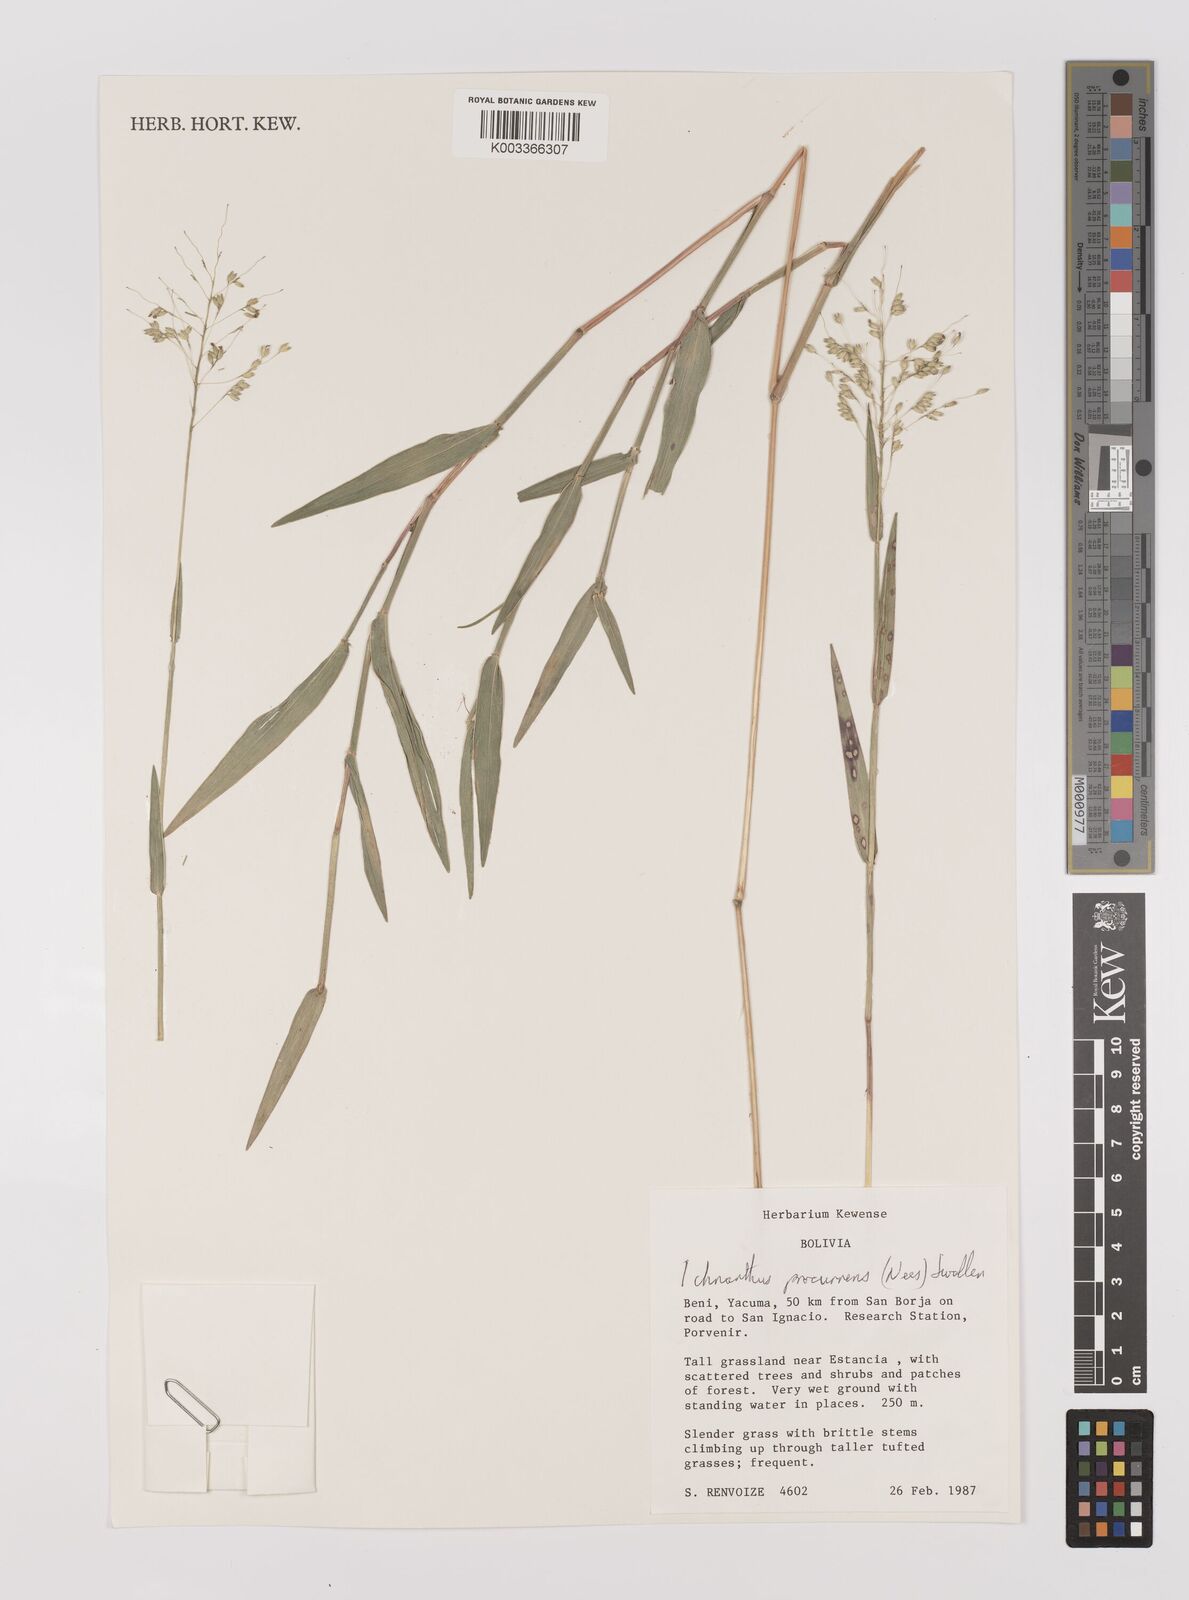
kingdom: Plantae
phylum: Tracheophyta
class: Liliopsida
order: Poales
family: Poaceae
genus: Oedochloa
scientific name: Oedochloa procurrens
